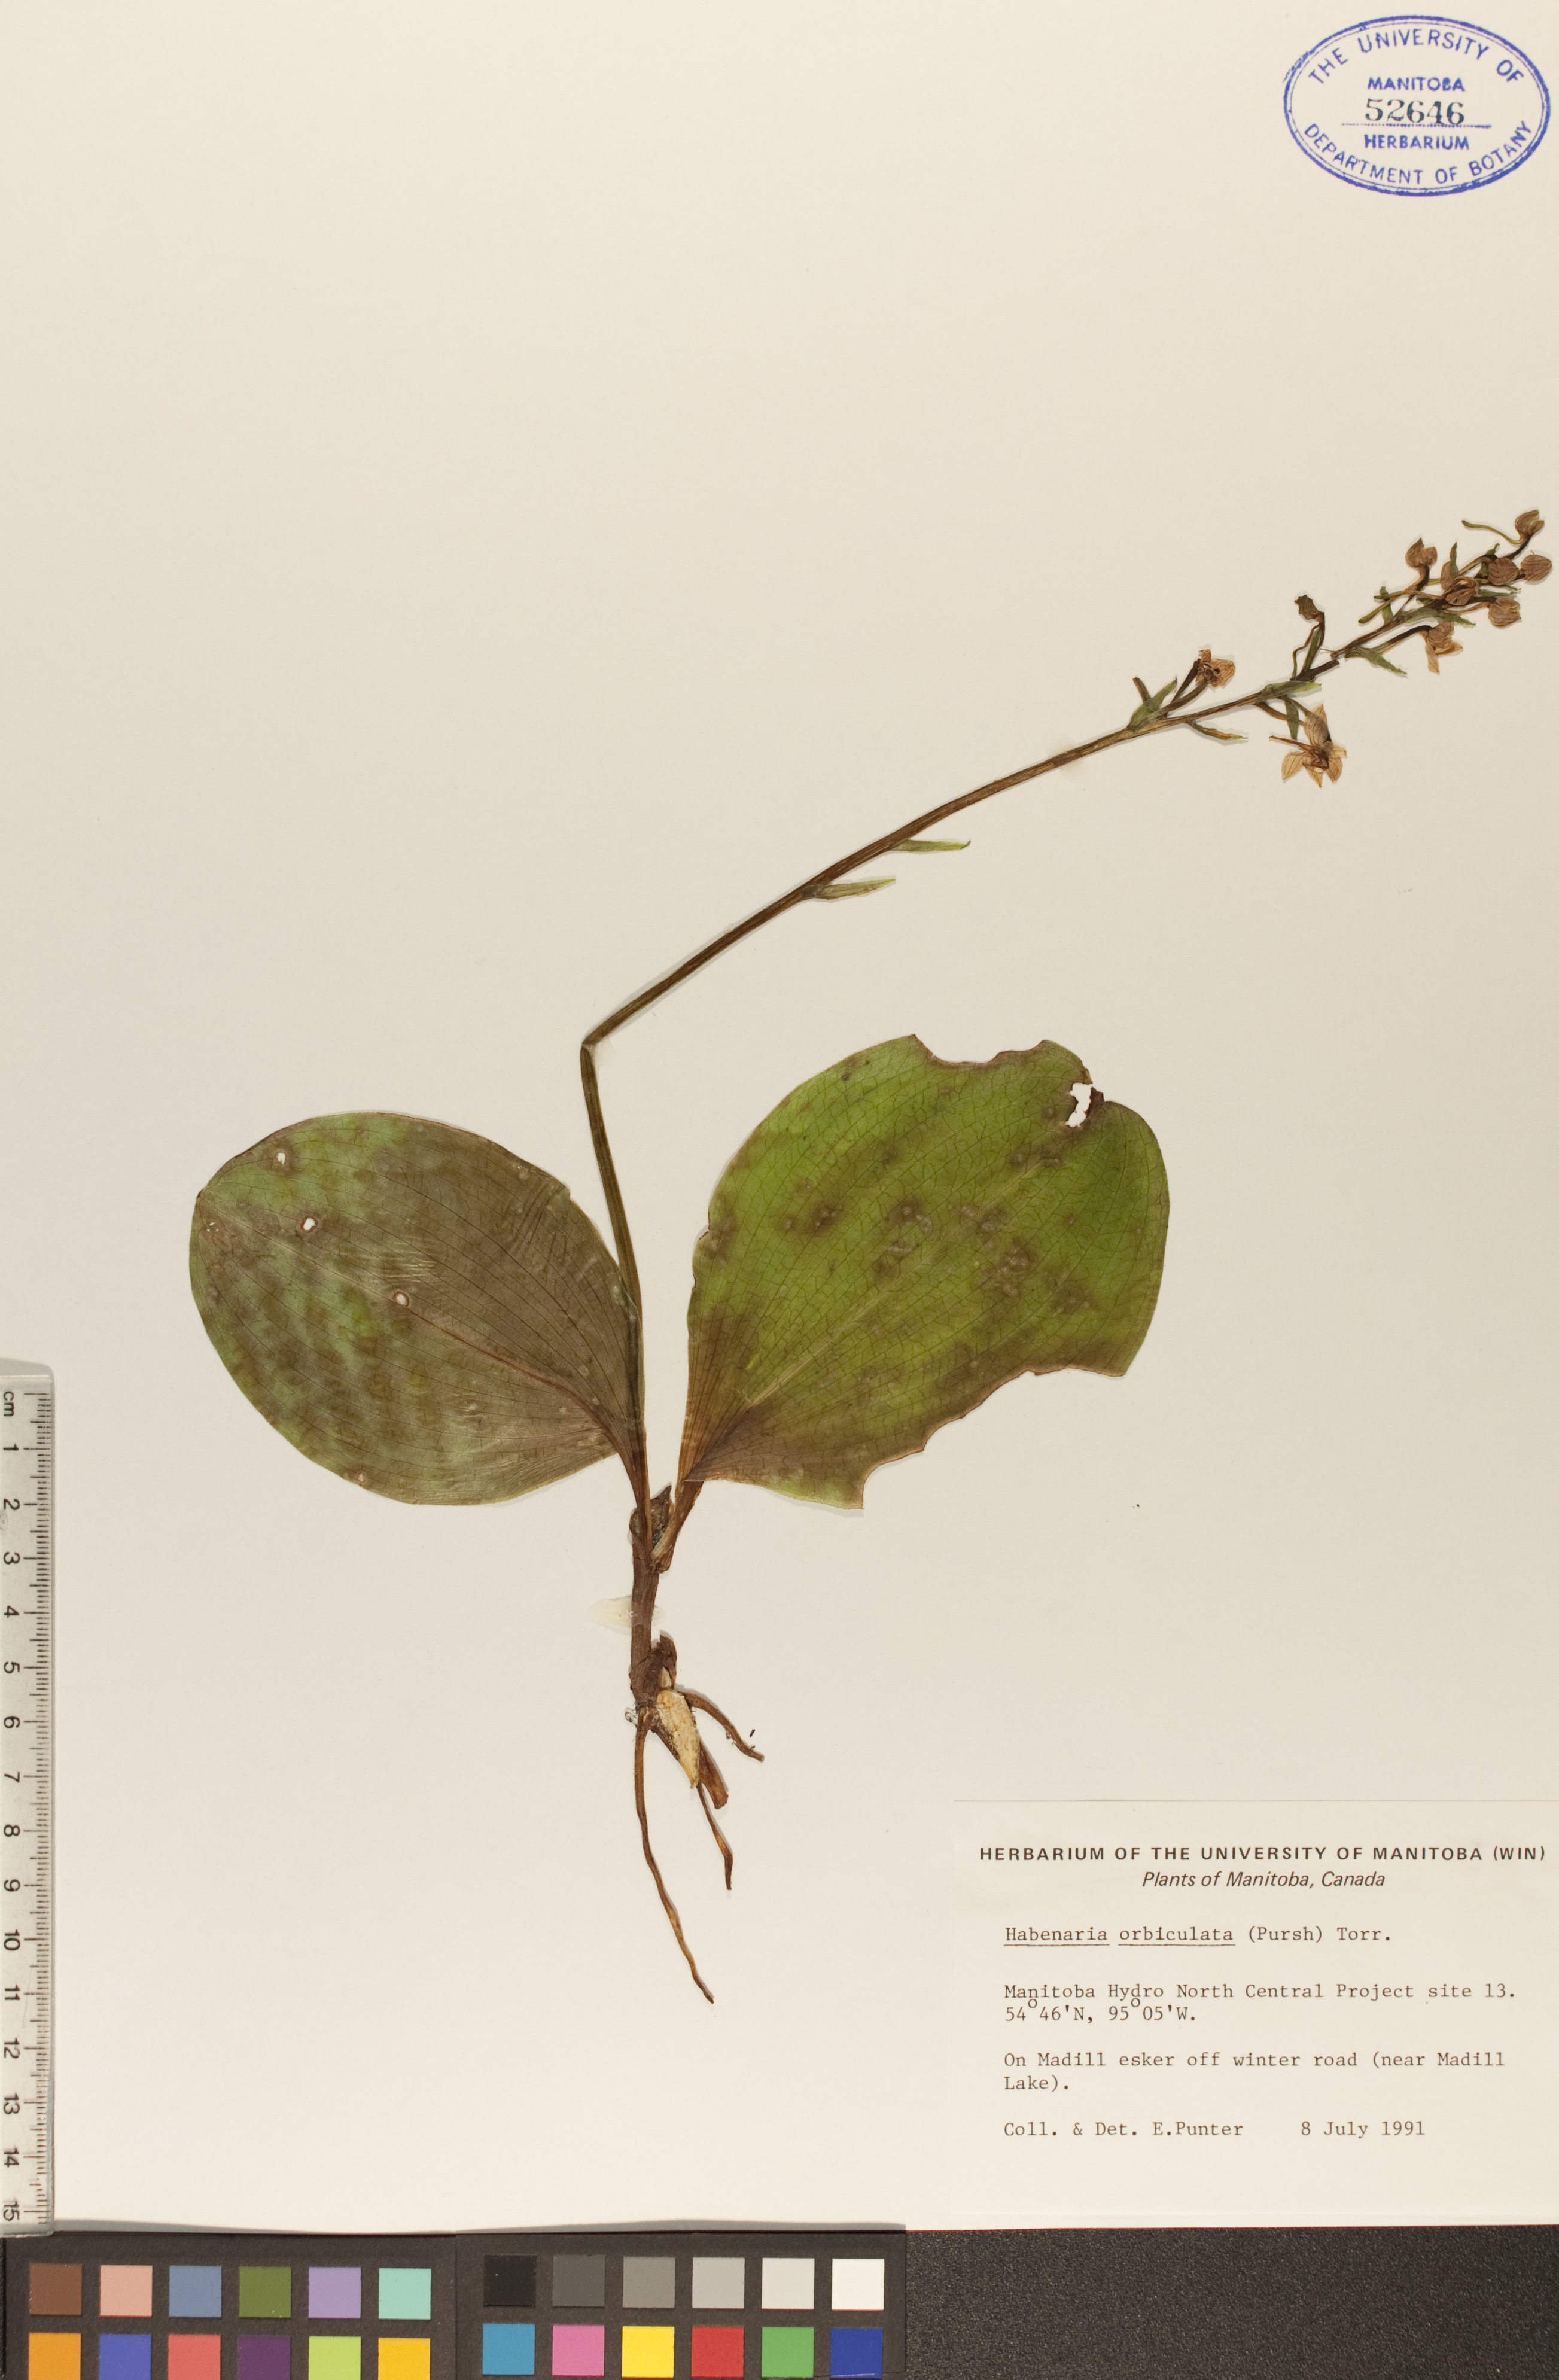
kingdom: Plantae
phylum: Tracheophyta
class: Liliopsida
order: Asparagales
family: Orchidaceae
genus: Platanthera
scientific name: Platanthera orbiculata
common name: Large round-leaved orchid
